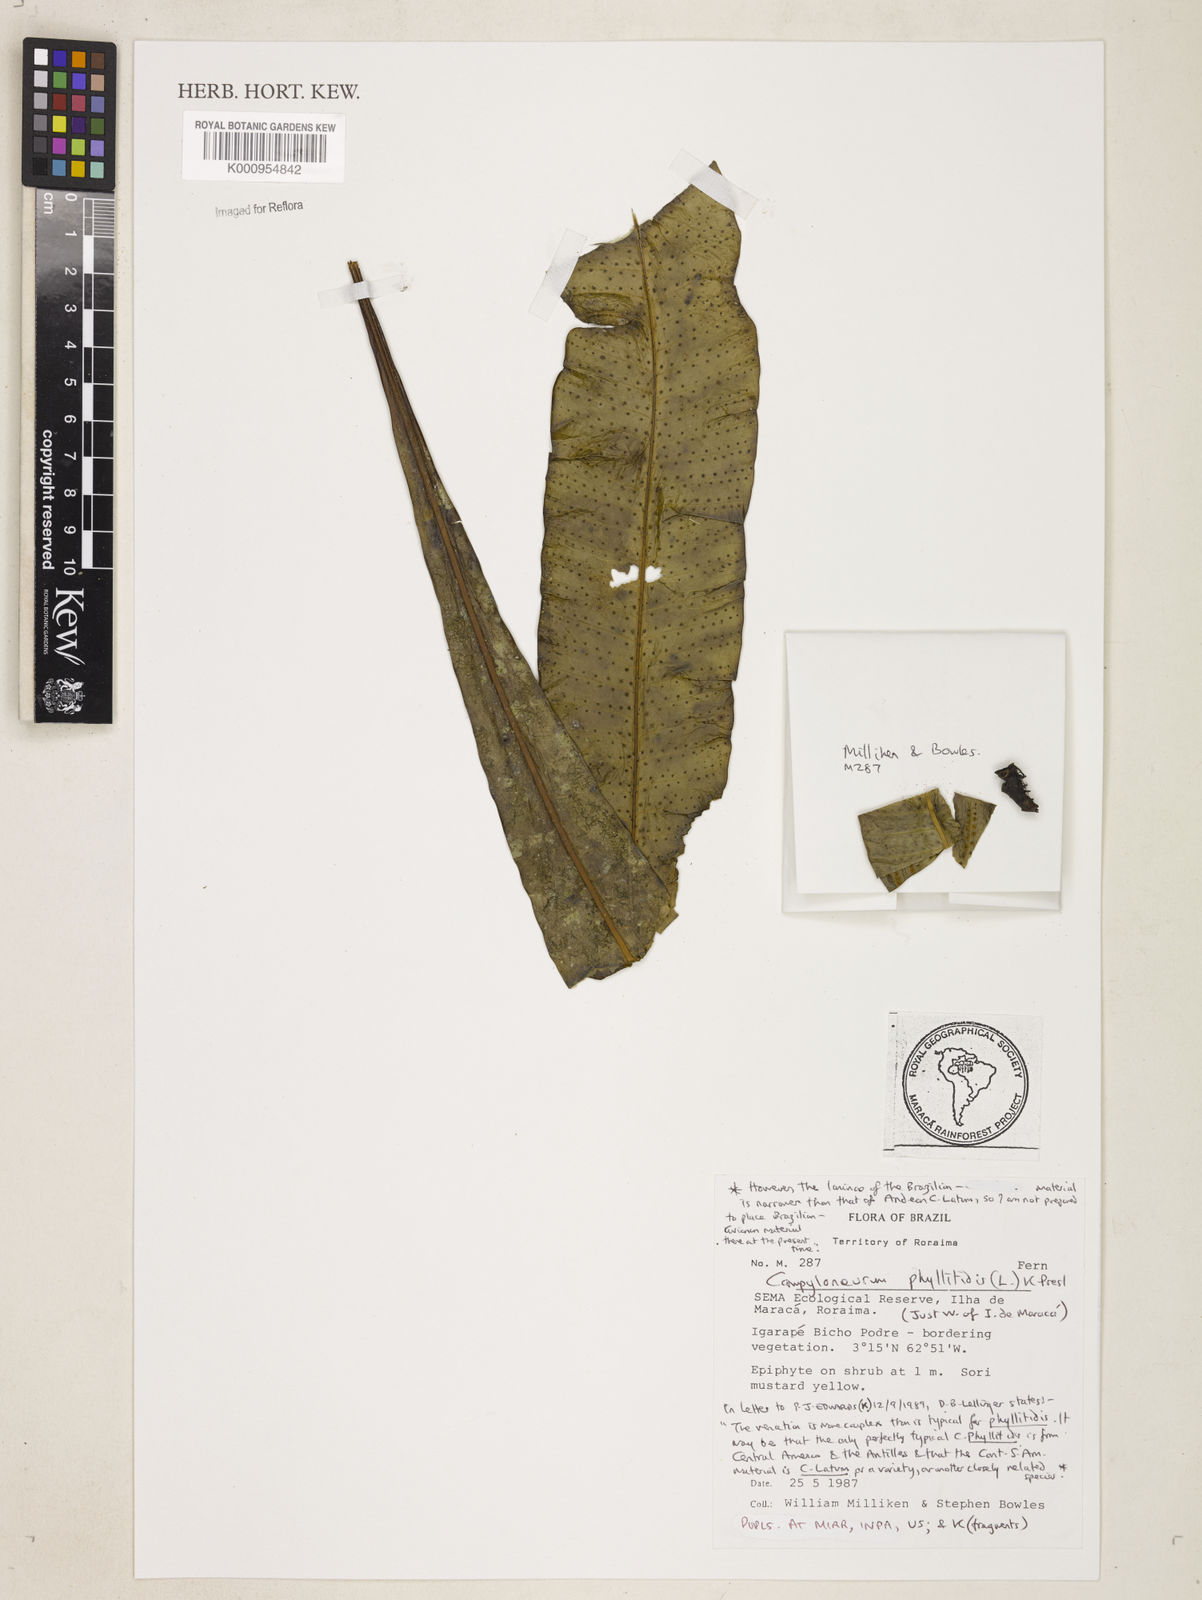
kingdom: Plantae
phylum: Tracheophyta
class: Polypodiopsida
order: Polypodiales
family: Polypodiaceae
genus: Campyloneurum
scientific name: Campyloneurum brevifolium
